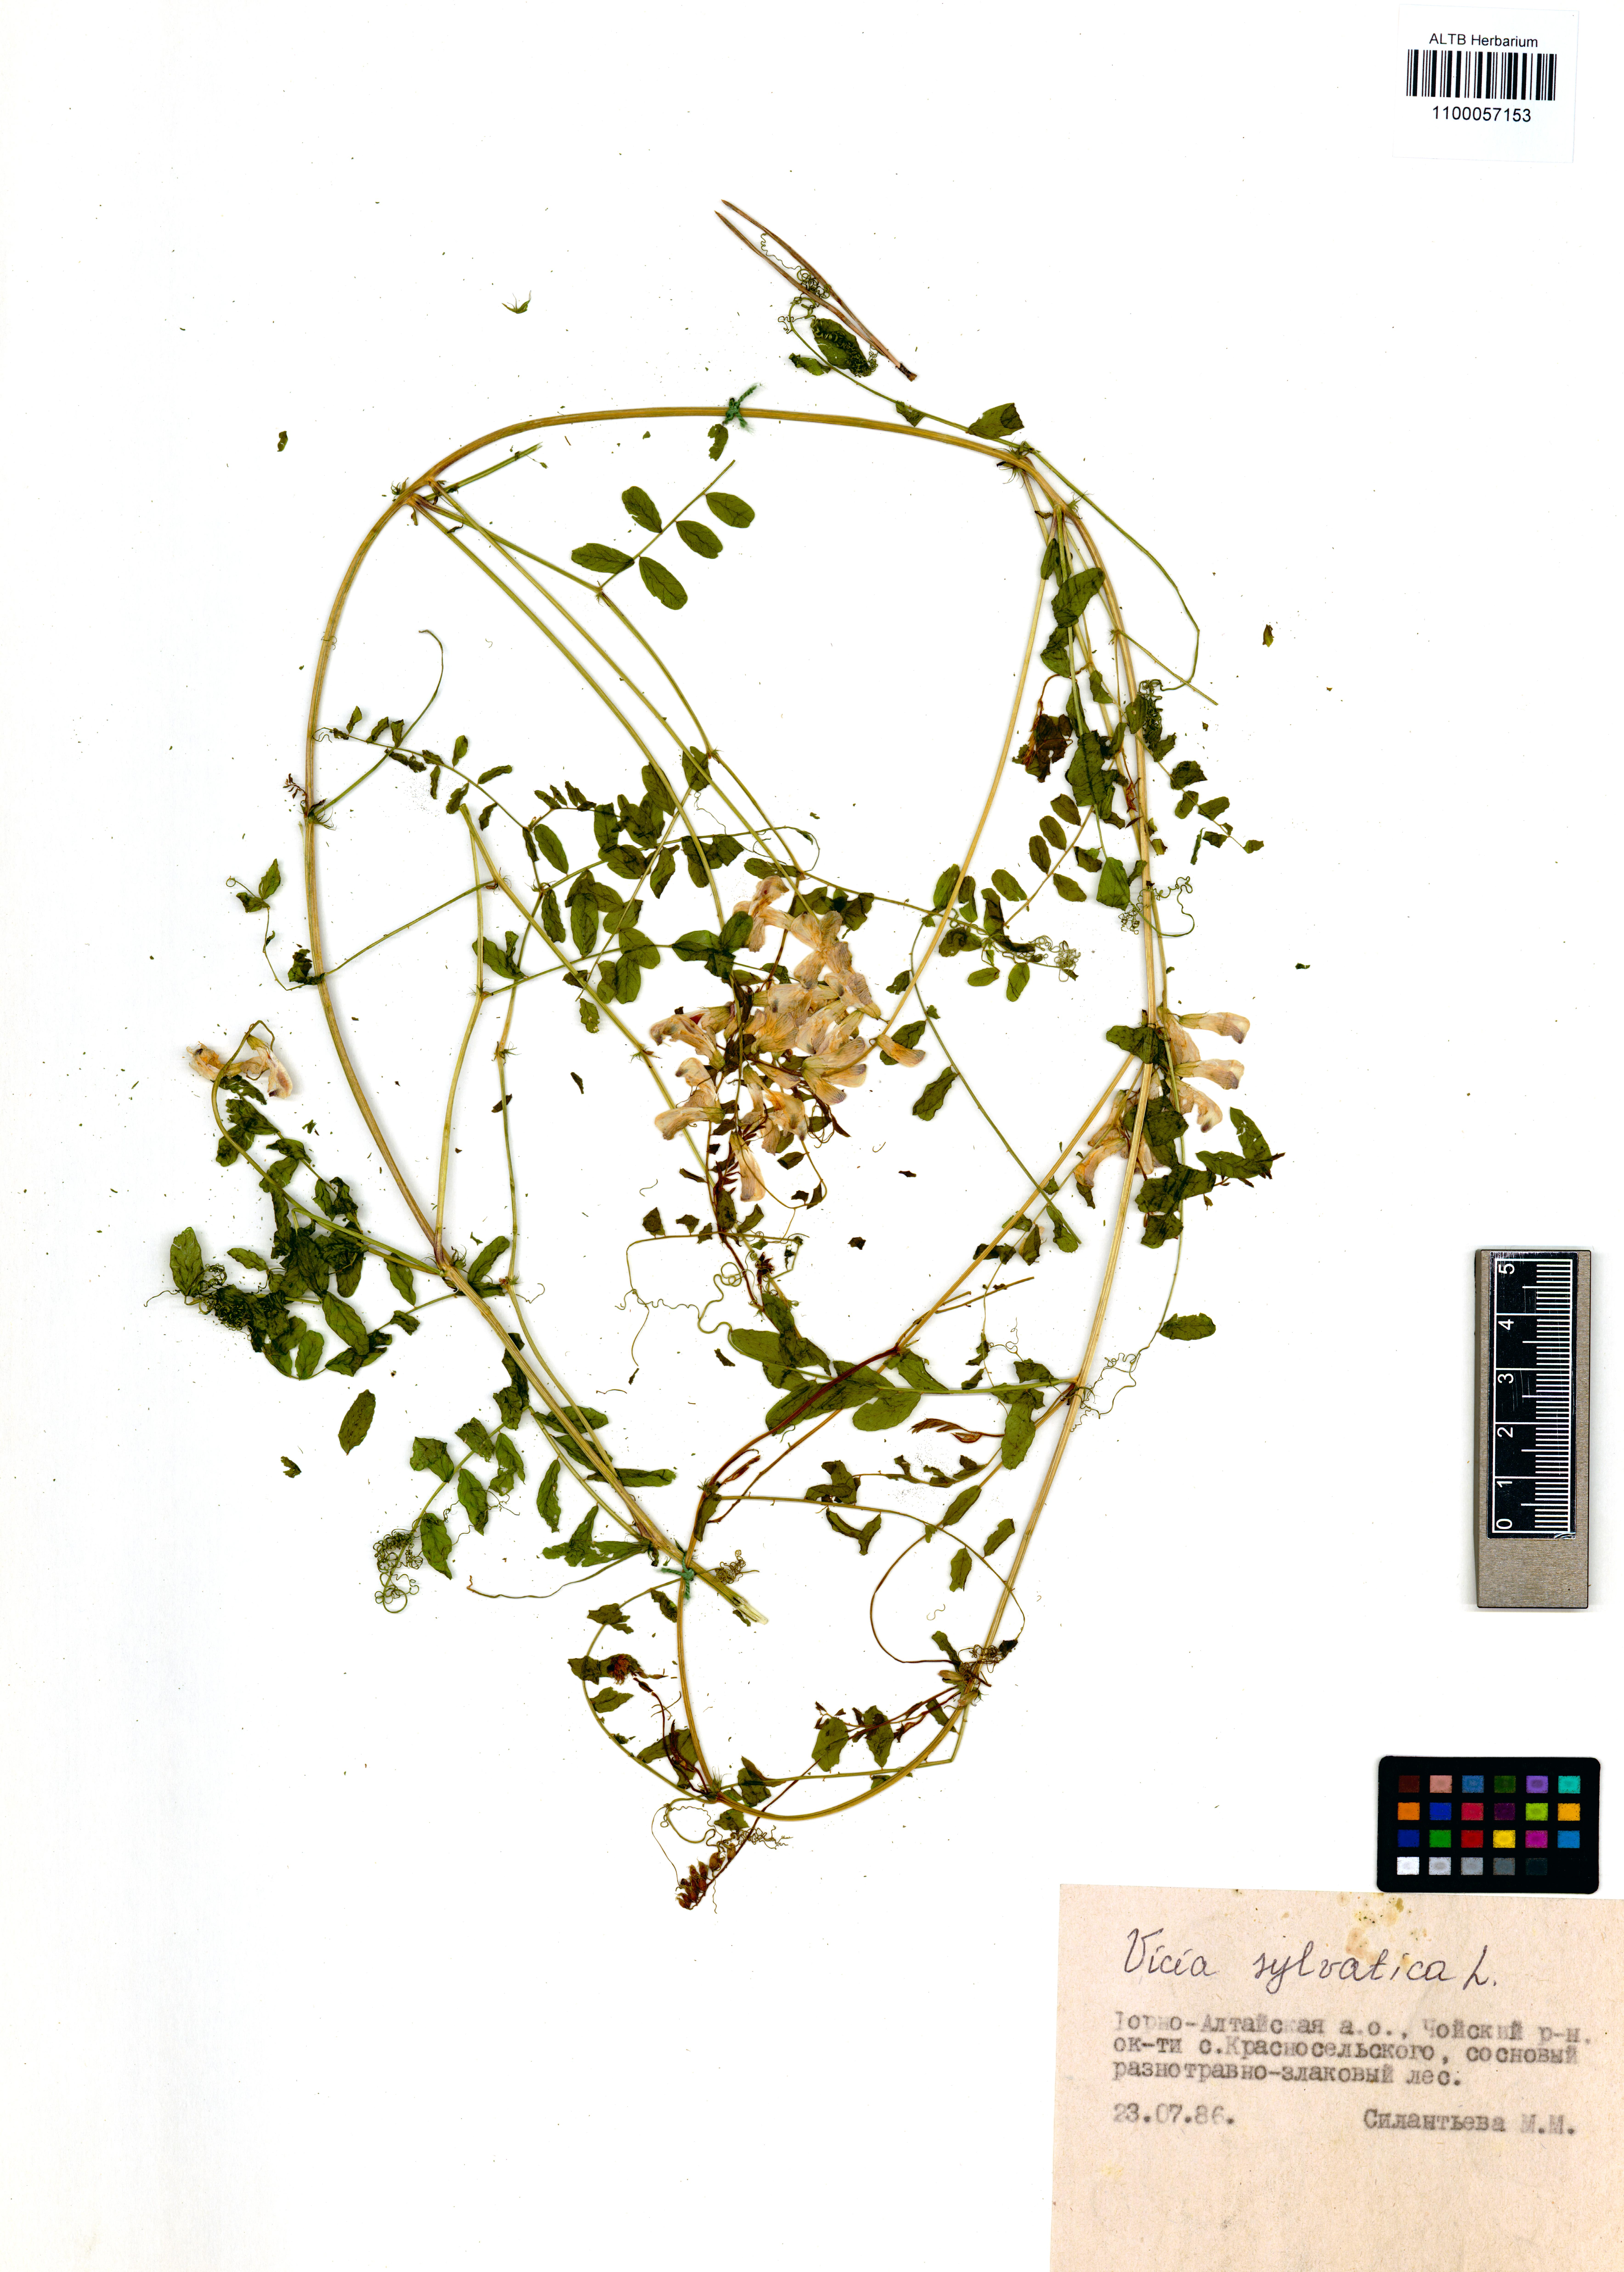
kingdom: Plantae
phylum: Tracheophyta
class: Magnoliopsida
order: Fabales
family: Fabaceae
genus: Vicia
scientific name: Vicia sylvatica
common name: Wood vetch
